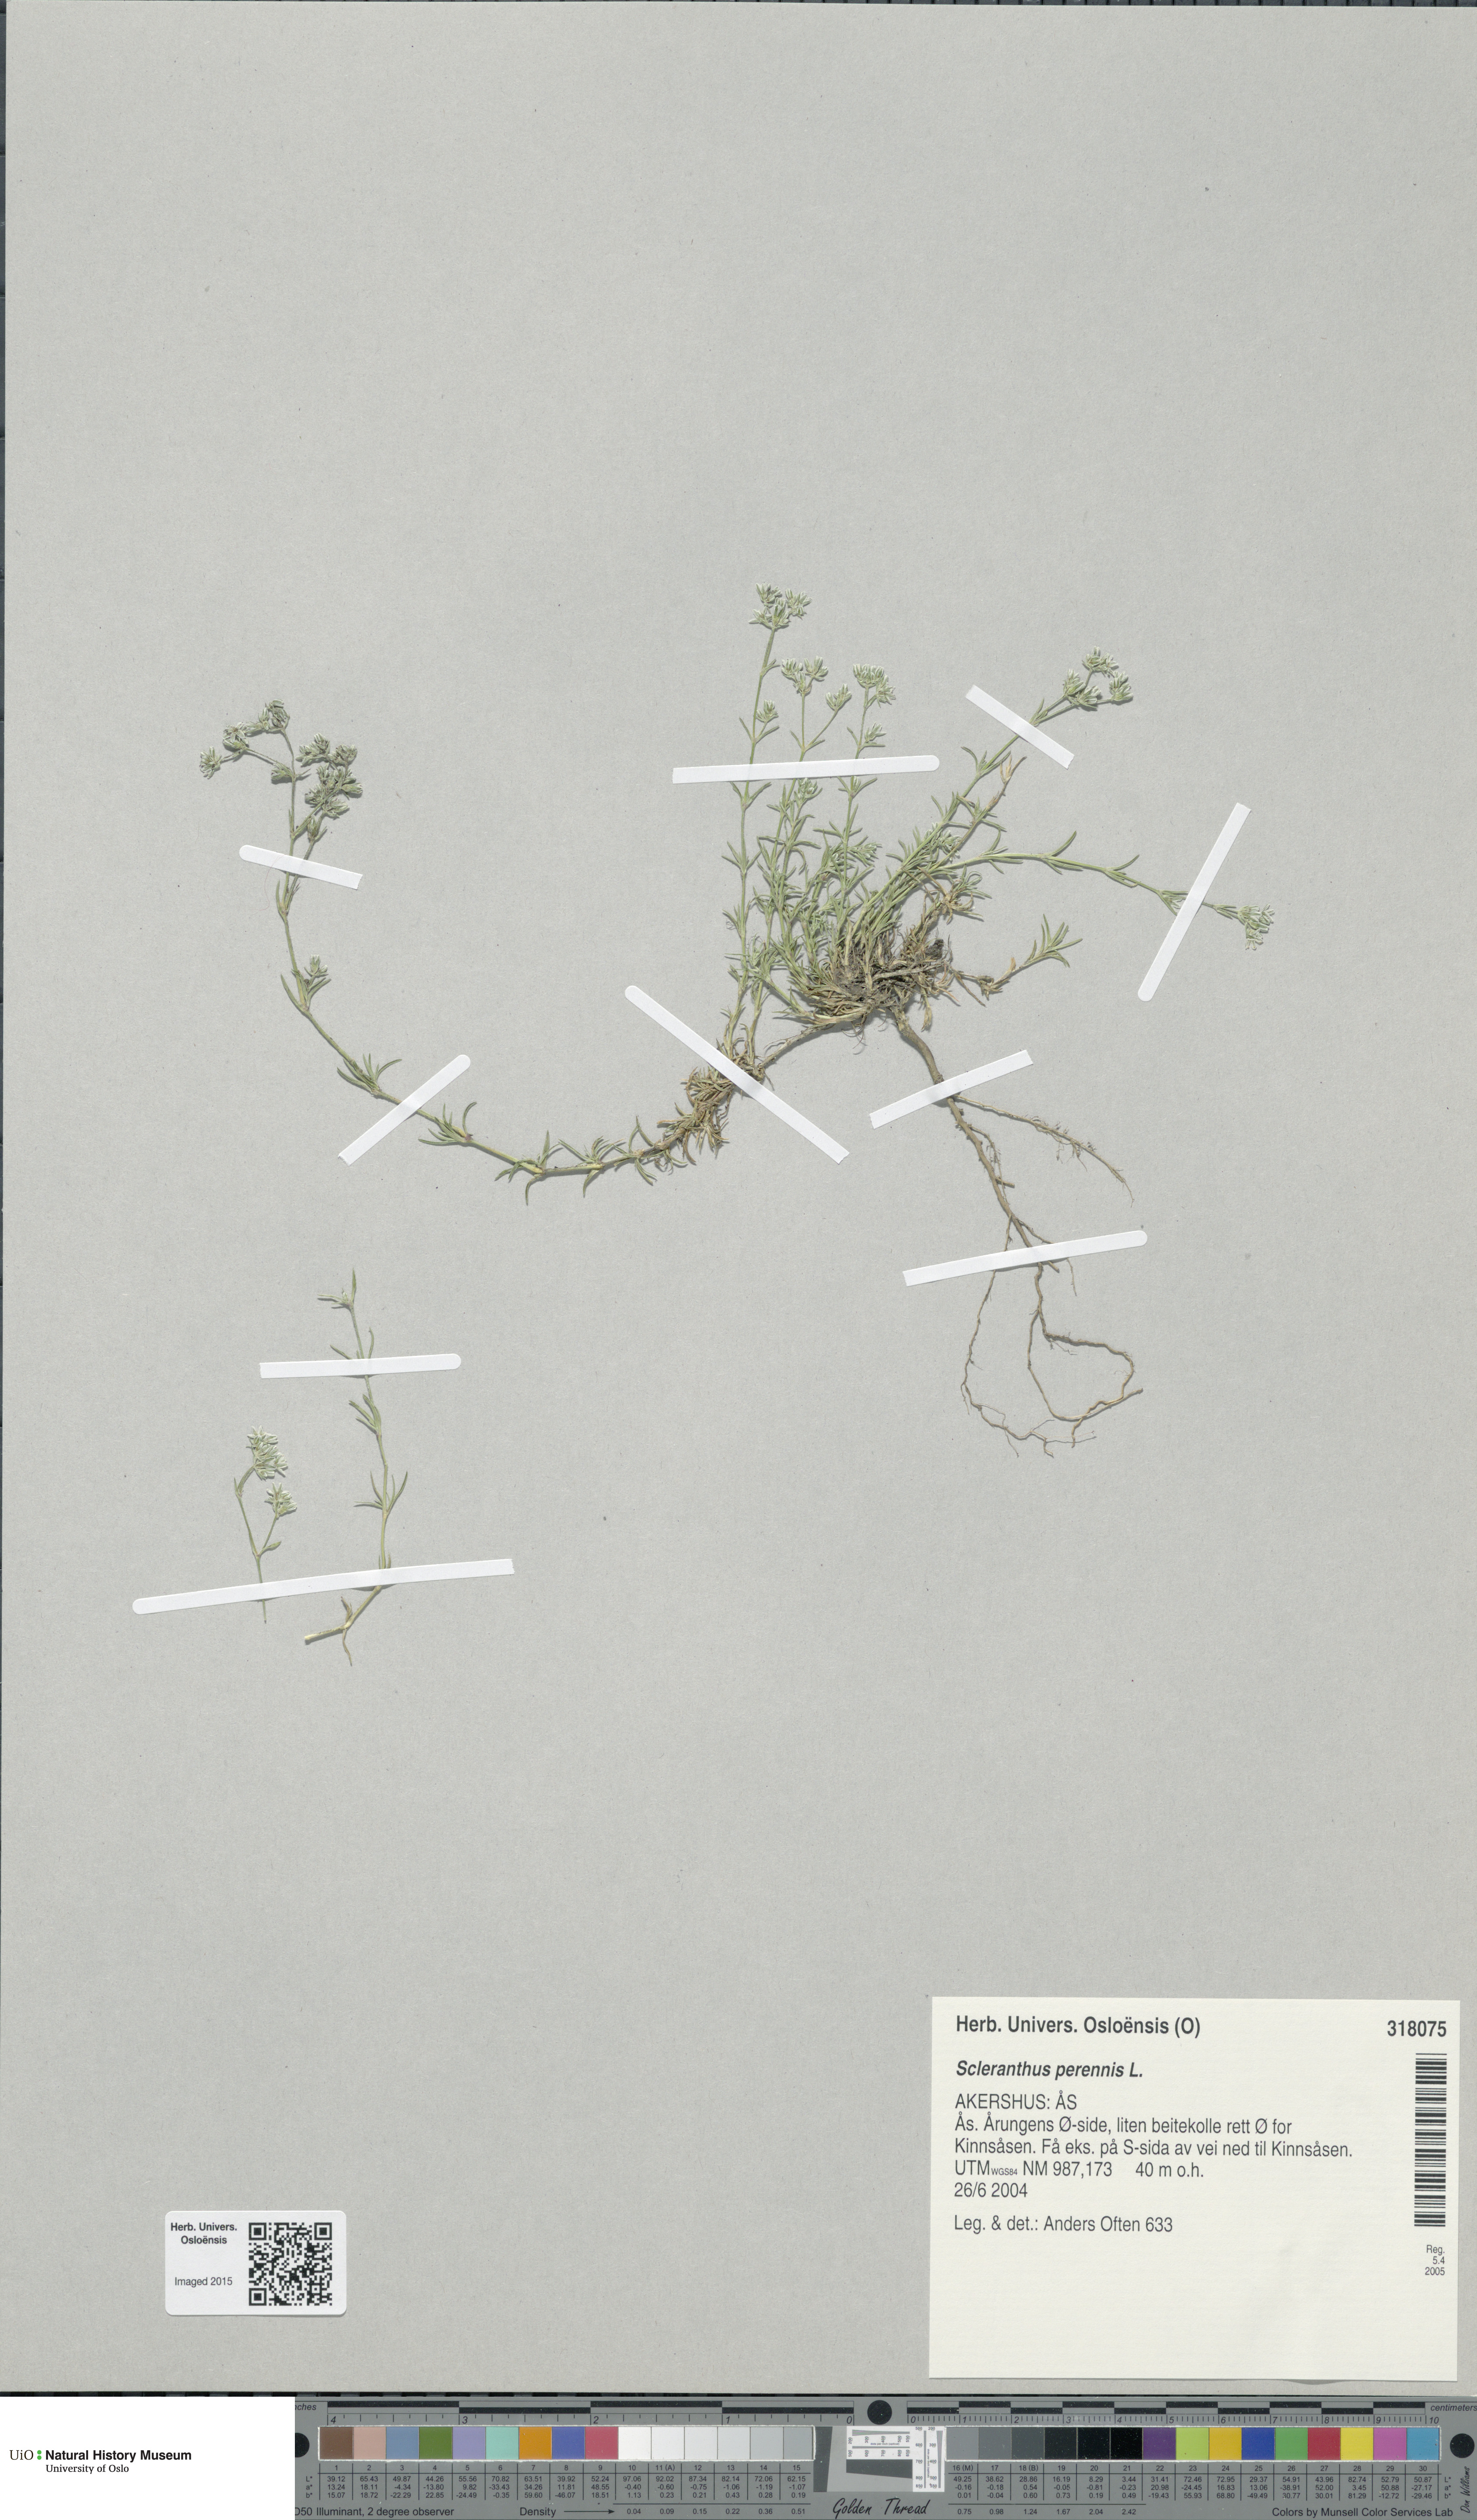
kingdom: Plantae
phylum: Tracheophyta
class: Magnoliopsida
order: Caryophyllales
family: Caryophyllaceae
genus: Scleranthus
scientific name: Scleranthus perennis
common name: Perennial knawel
